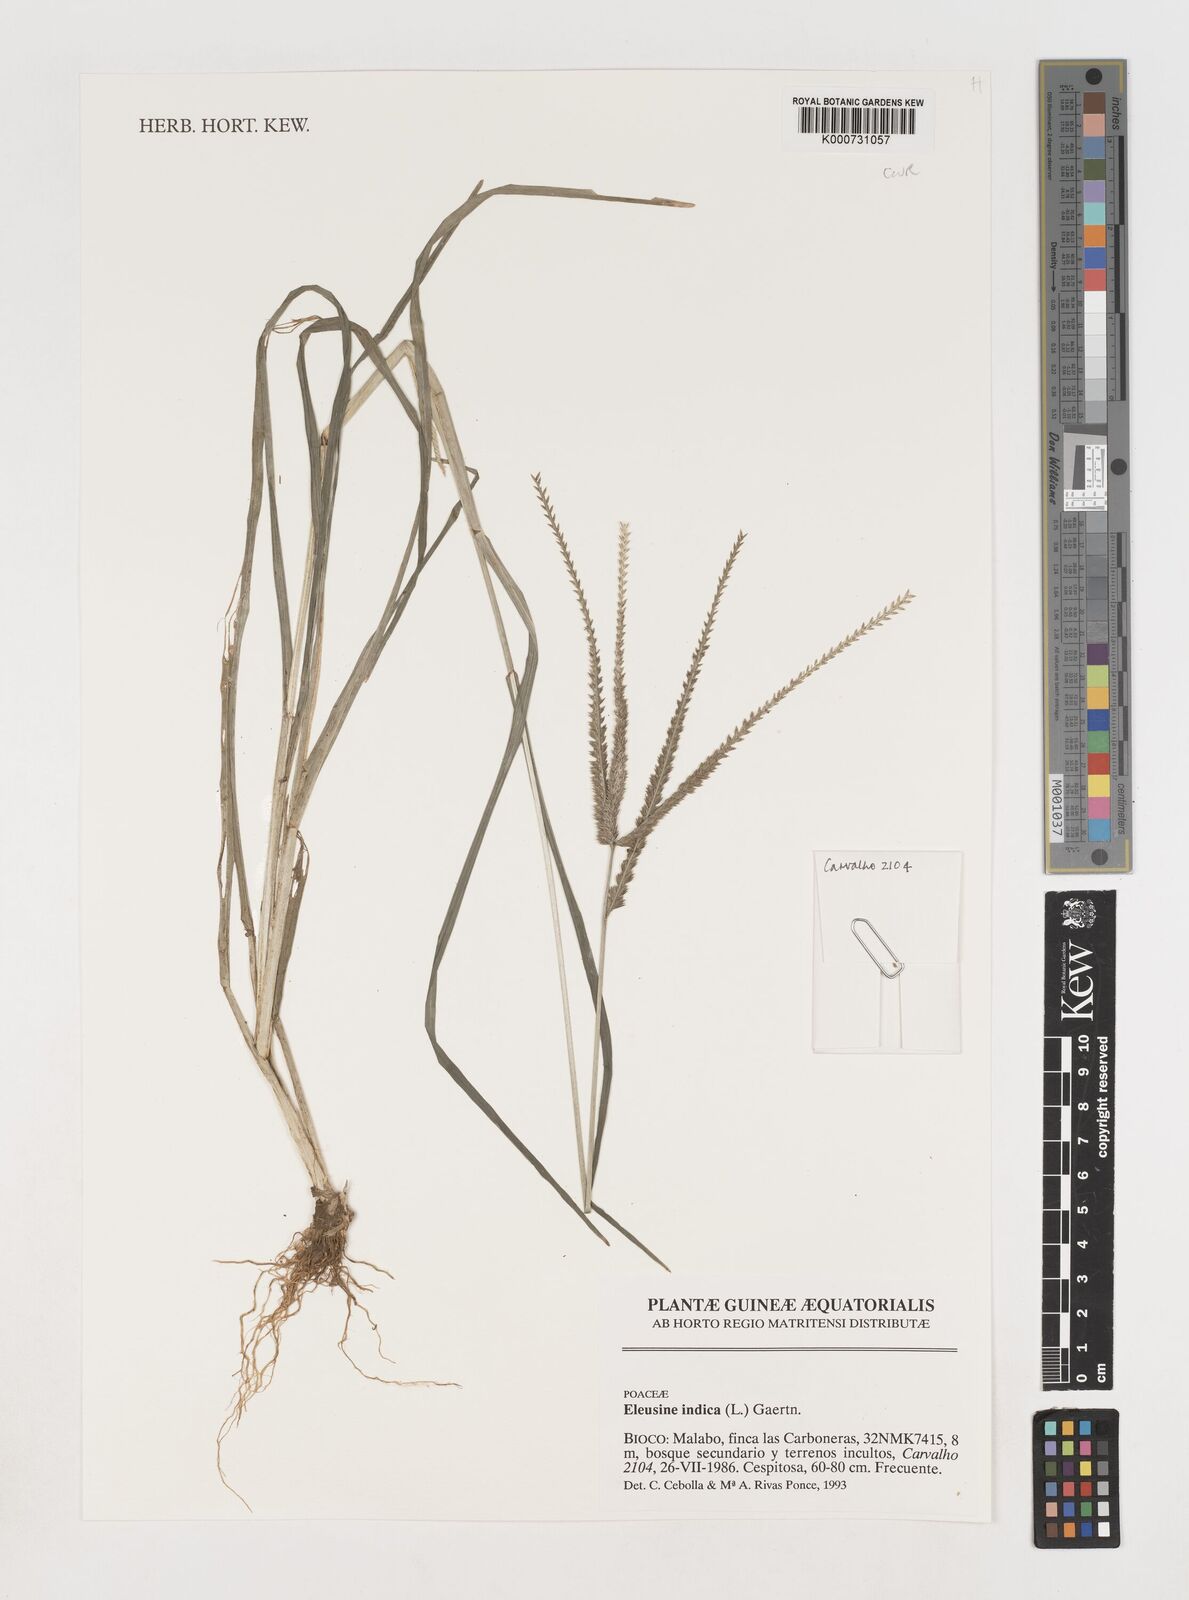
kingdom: Plantae
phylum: Tracheophyta
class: Liliopsida
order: Poales
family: Poaceae
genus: Eleusine
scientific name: Eleusine indica
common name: Yard-grass
